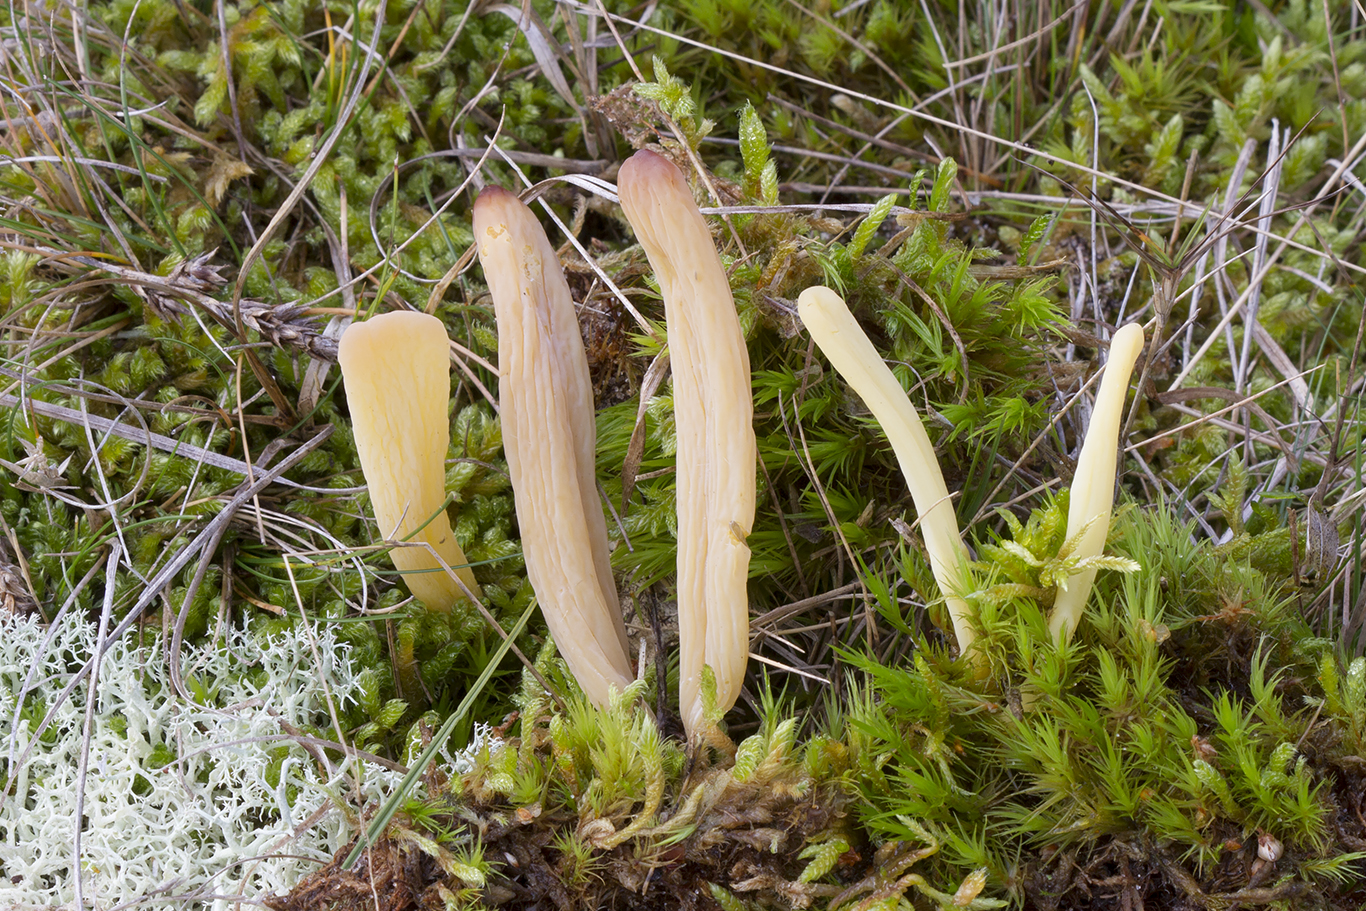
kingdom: Fungi
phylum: Basidiomycota
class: Agaricomycetes
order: Agaricales
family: Clavariaceae
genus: Clavaria
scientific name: Clavaria argillacea
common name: lerfarvet køllesvamp
